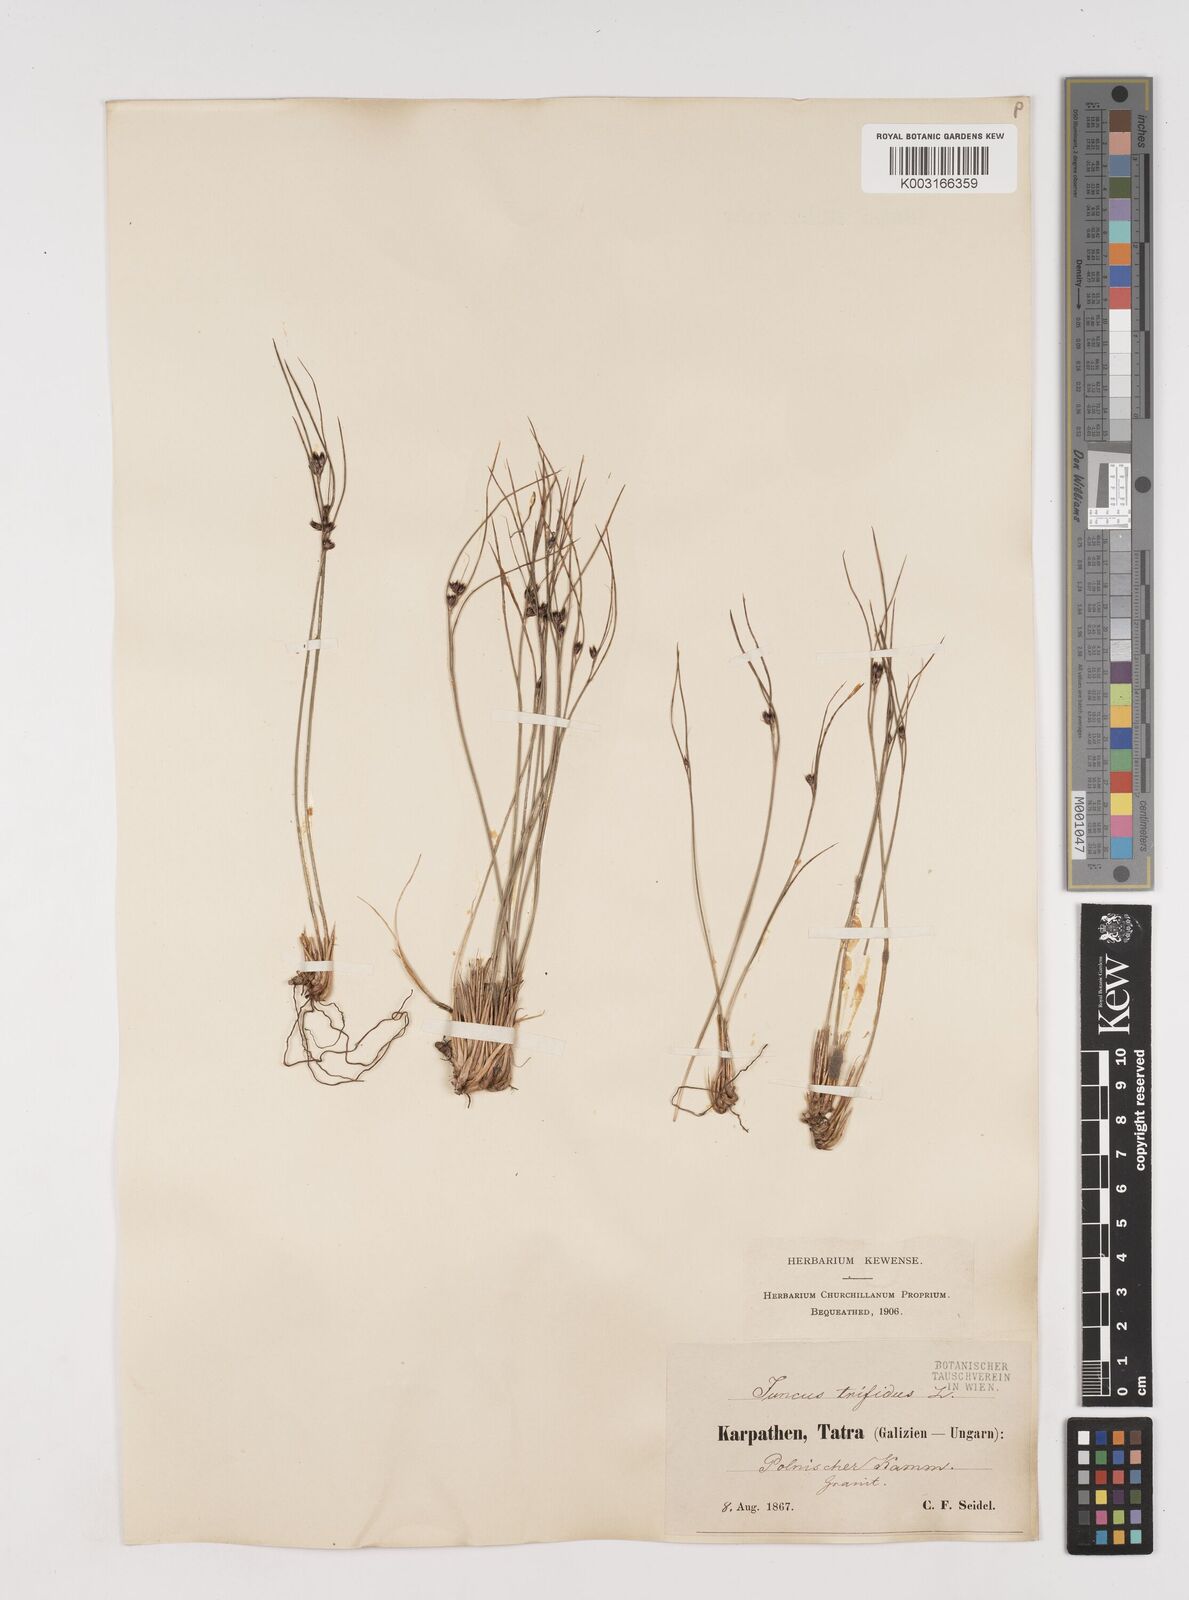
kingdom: Plantae
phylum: Tracheophyta
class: Liliopsida
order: Poales
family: Juncaceae
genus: Oreojuncus
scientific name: Oreojuncus trifidus
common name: Highland rush
